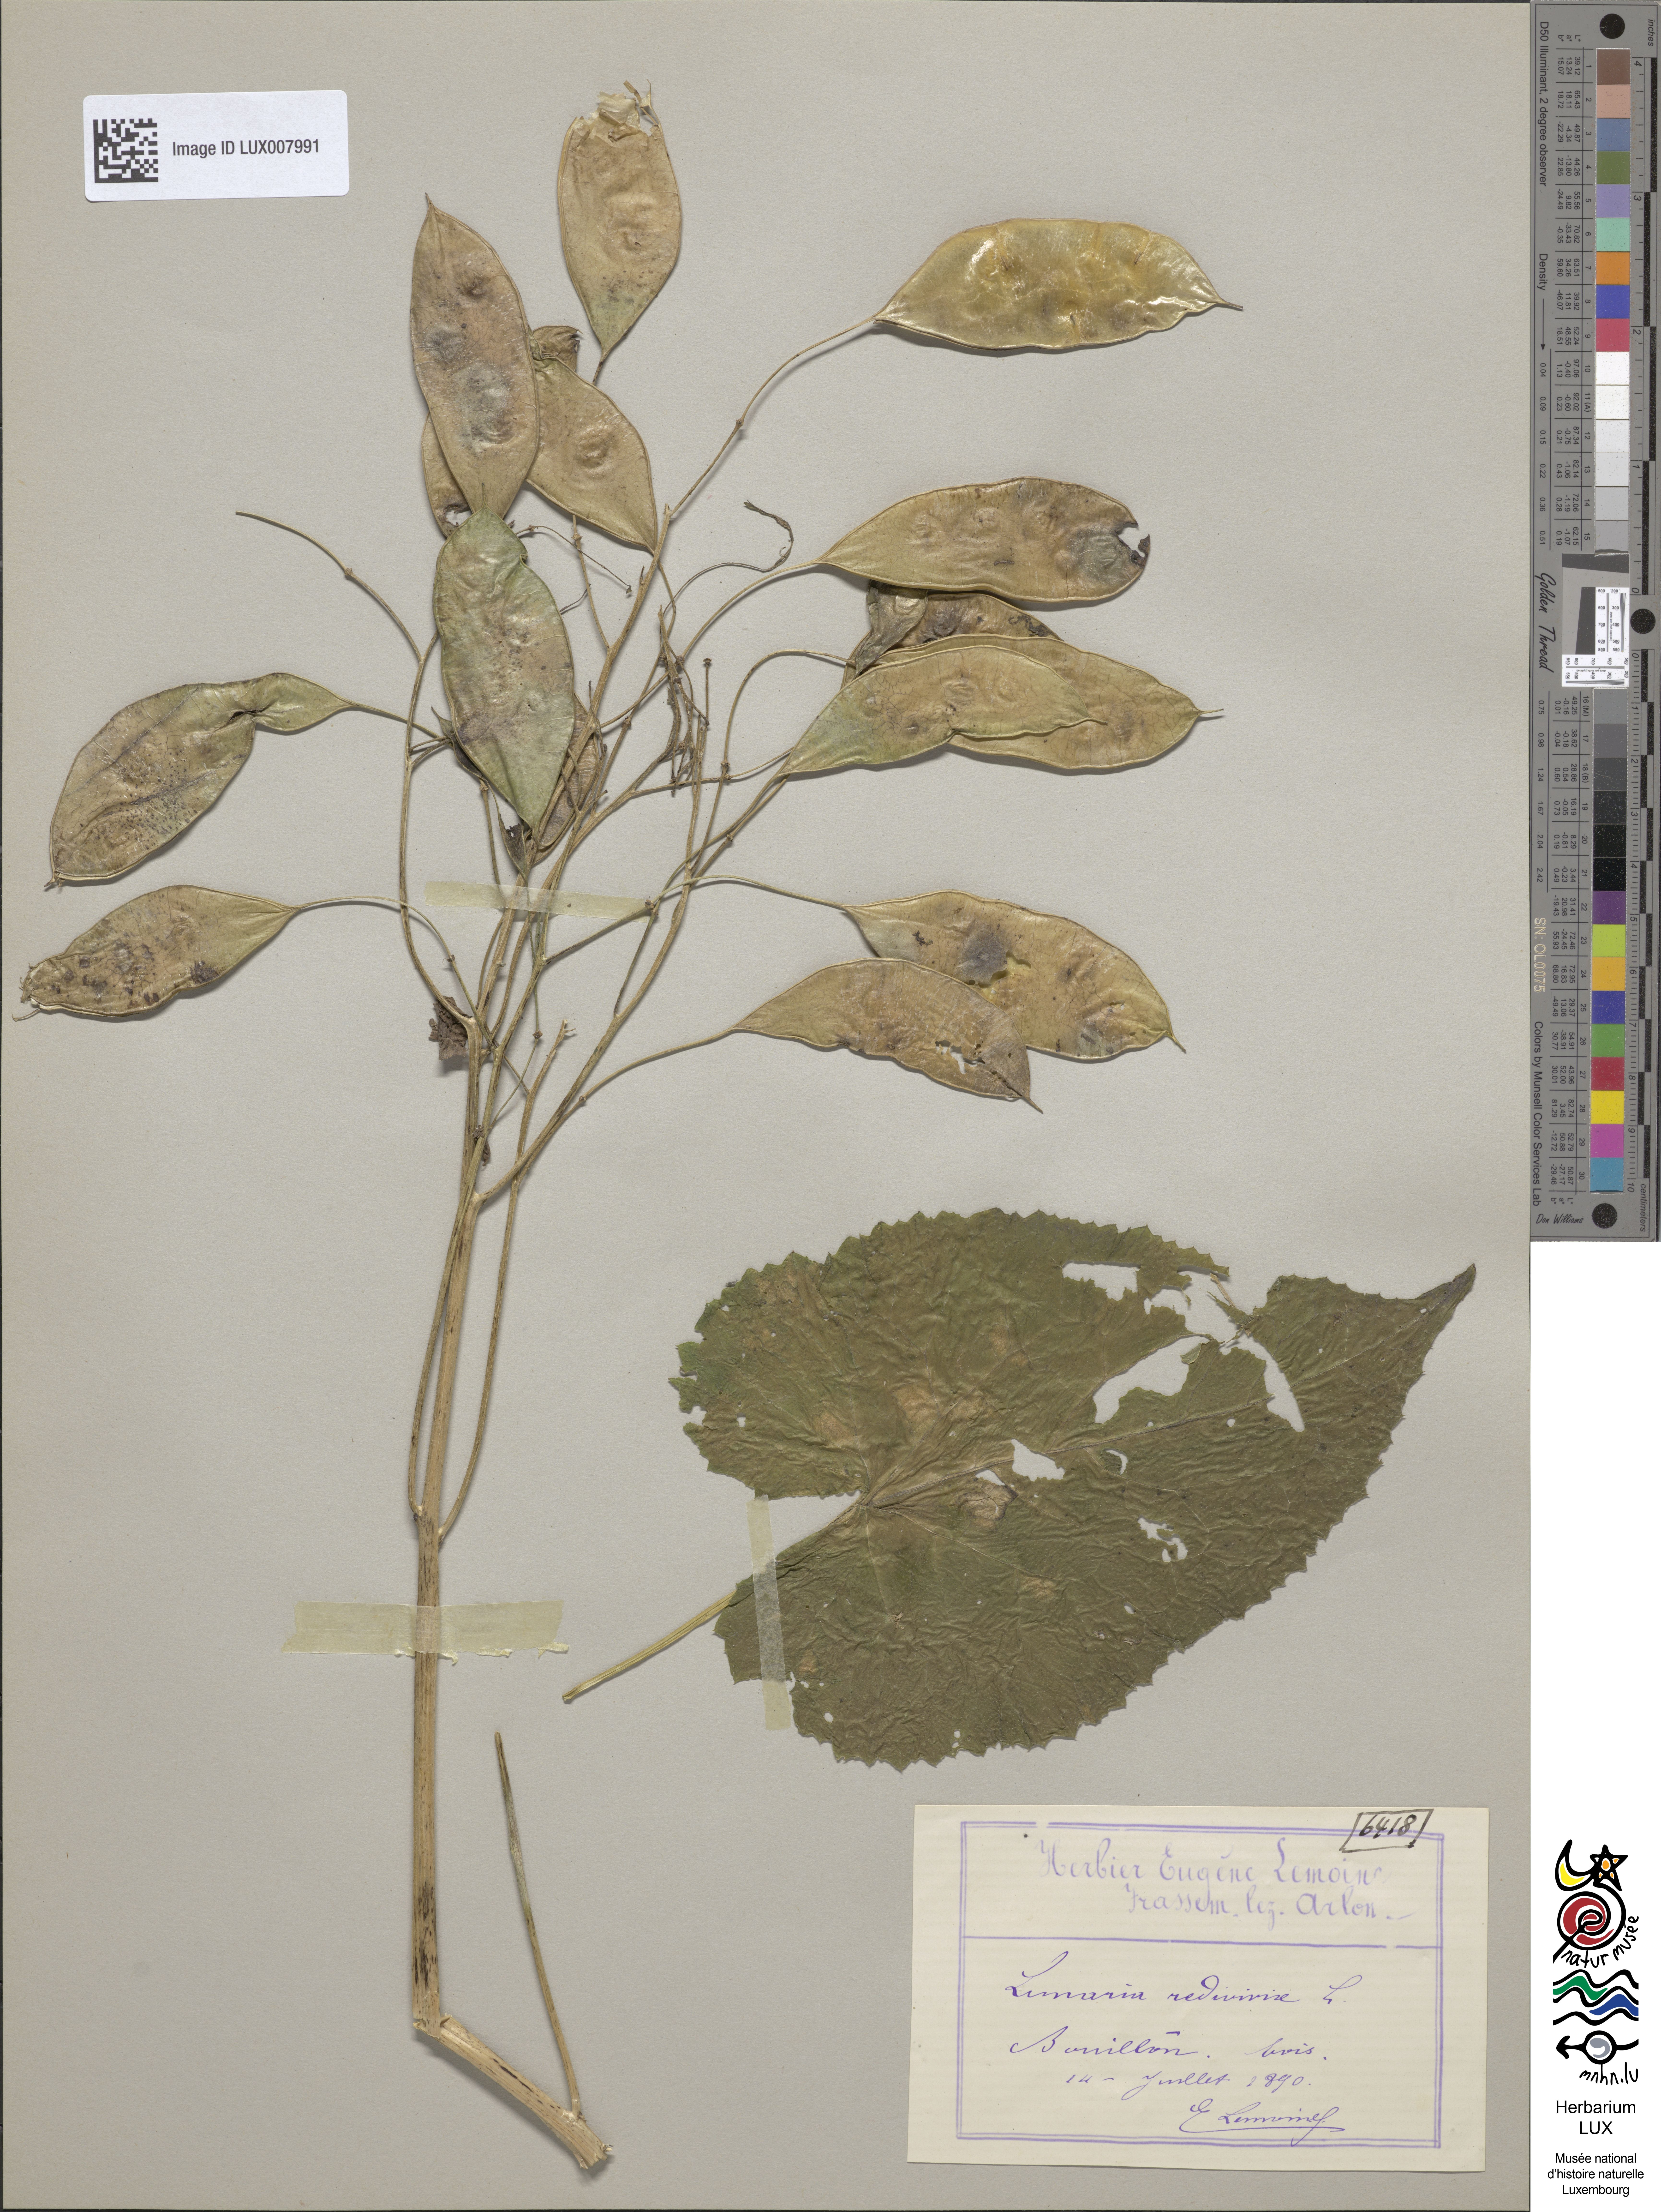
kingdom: Plantae
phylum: Tracheophyta
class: Magnoliopsida
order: Brassicales
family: Brassicaceae
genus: Lunaria
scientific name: Lunaria rediviva
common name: Perennial honesty
